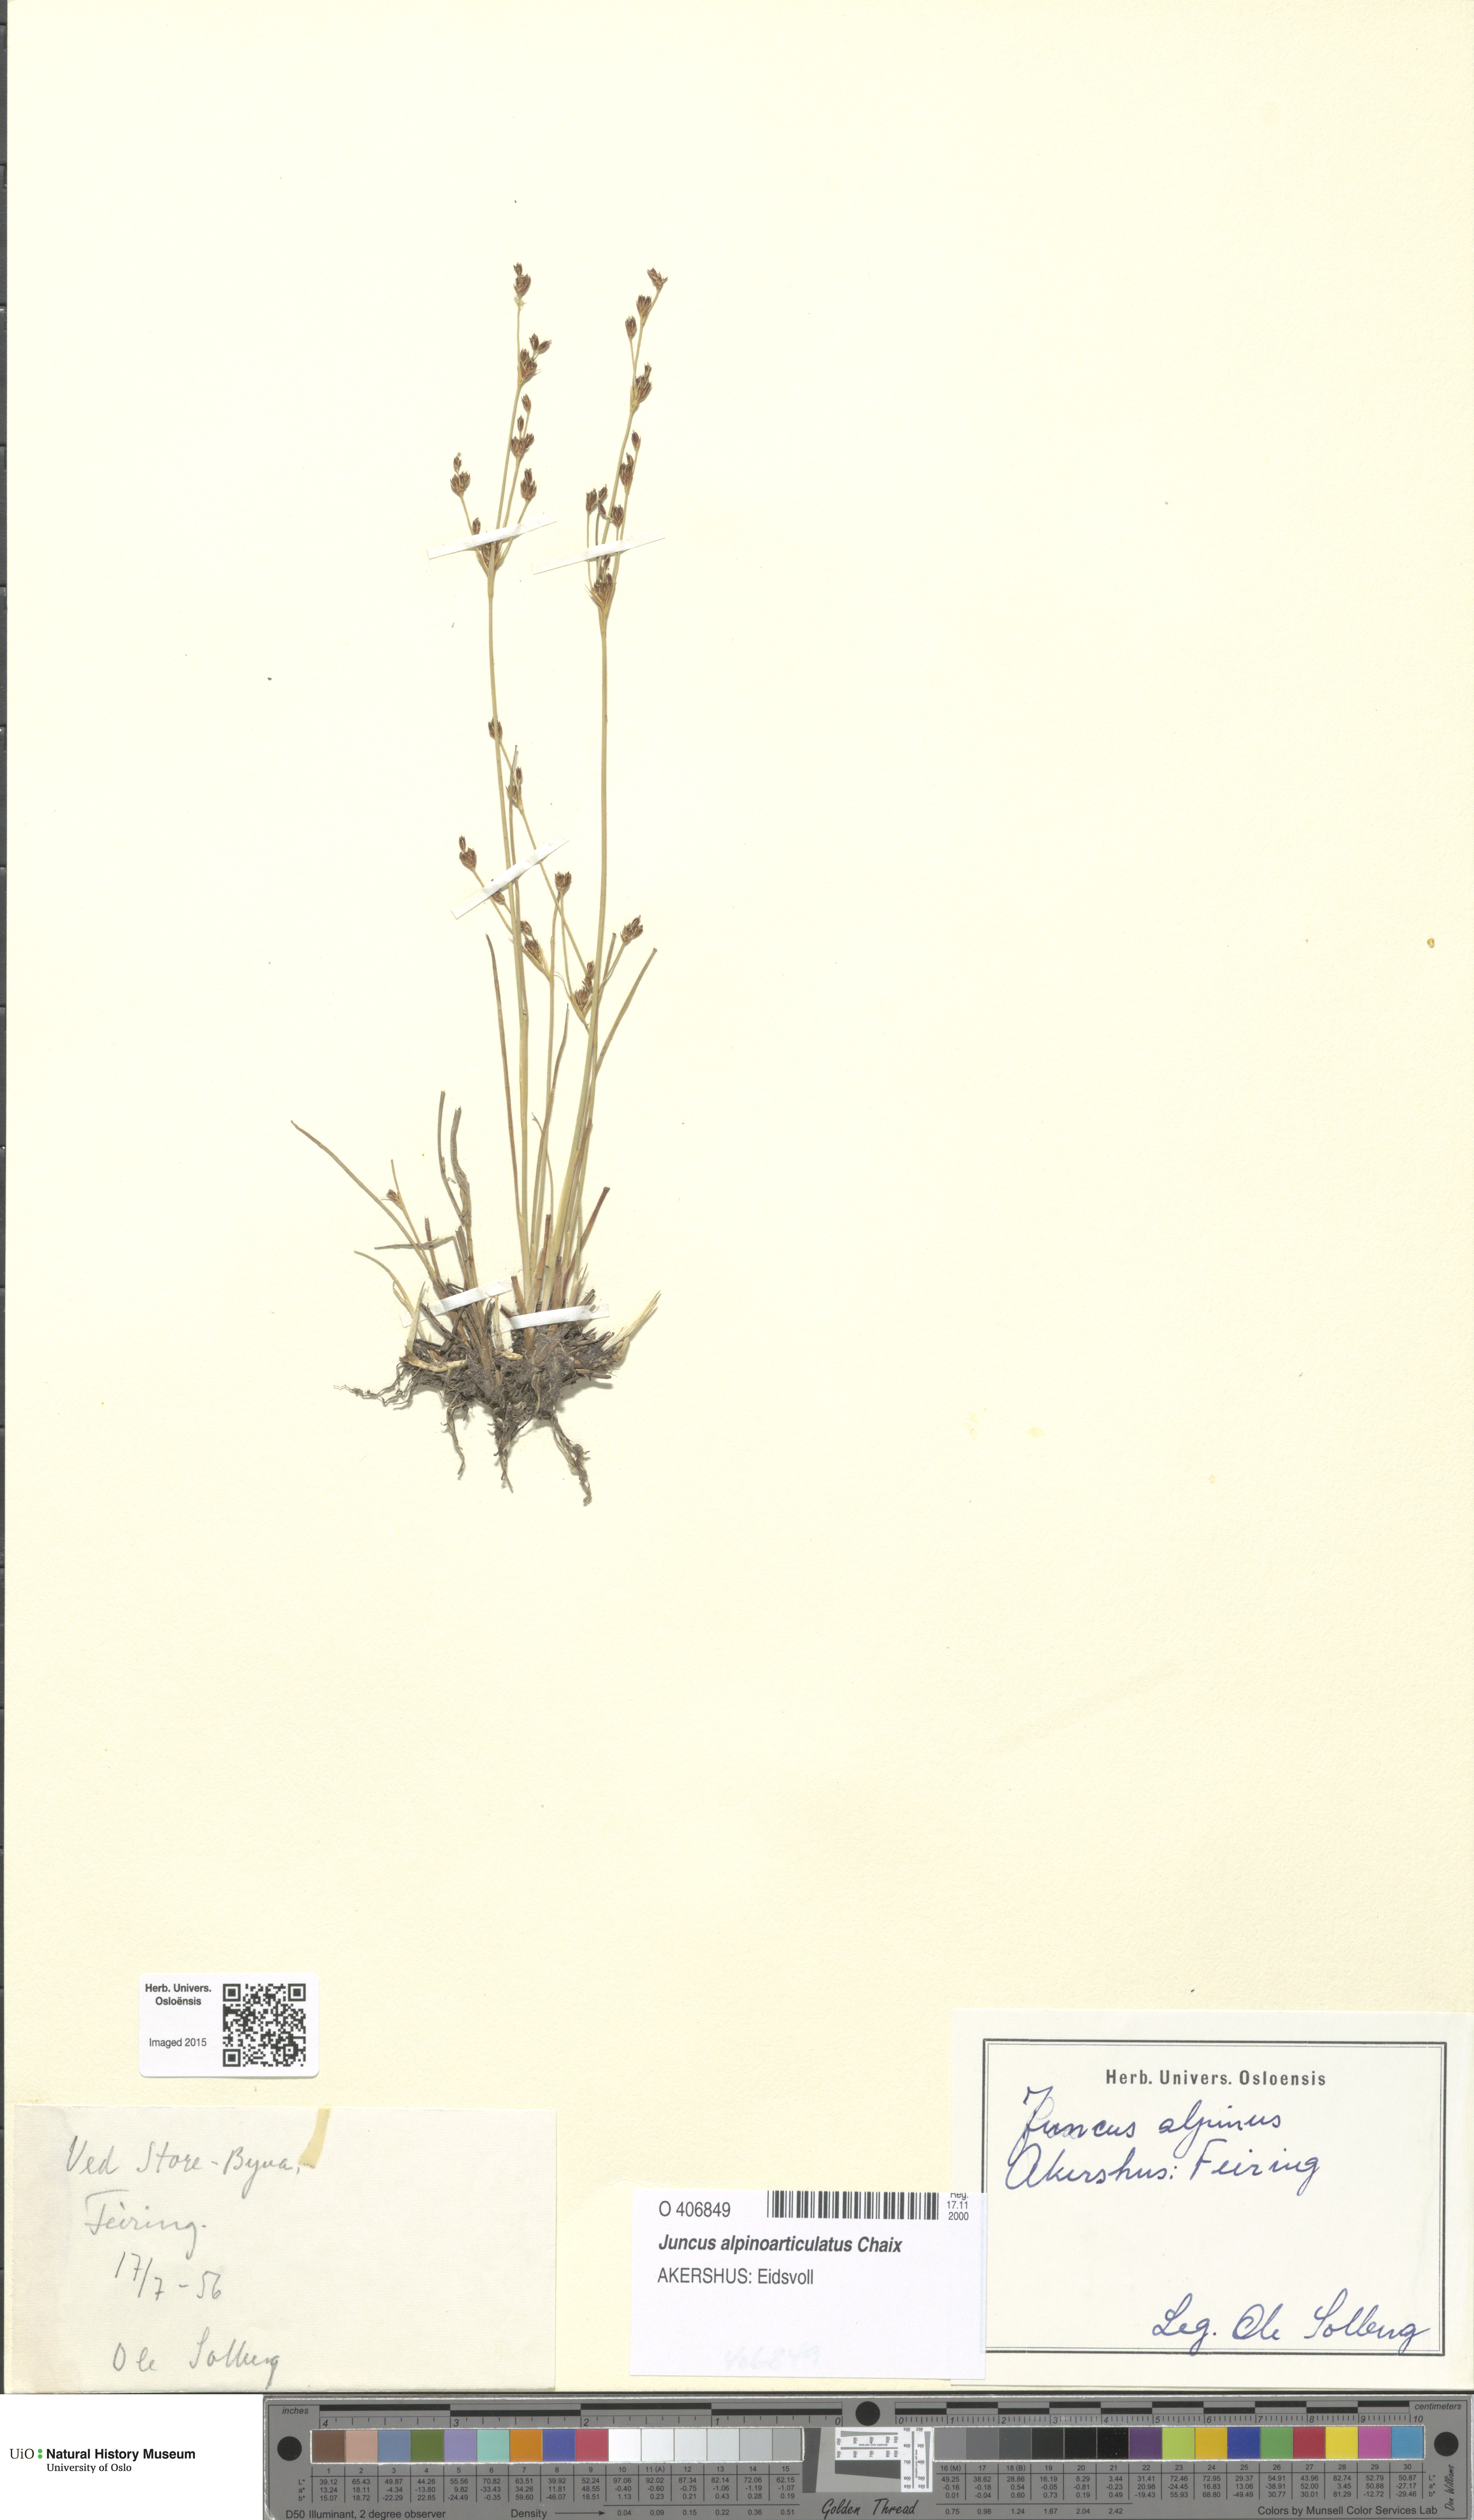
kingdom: Plantae
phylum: Tracheophyta
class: Liliopsida
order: Poales
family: Juncaceae
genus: Juncus
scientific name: Juncus alpinoarticulatus
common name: Alpine rush
